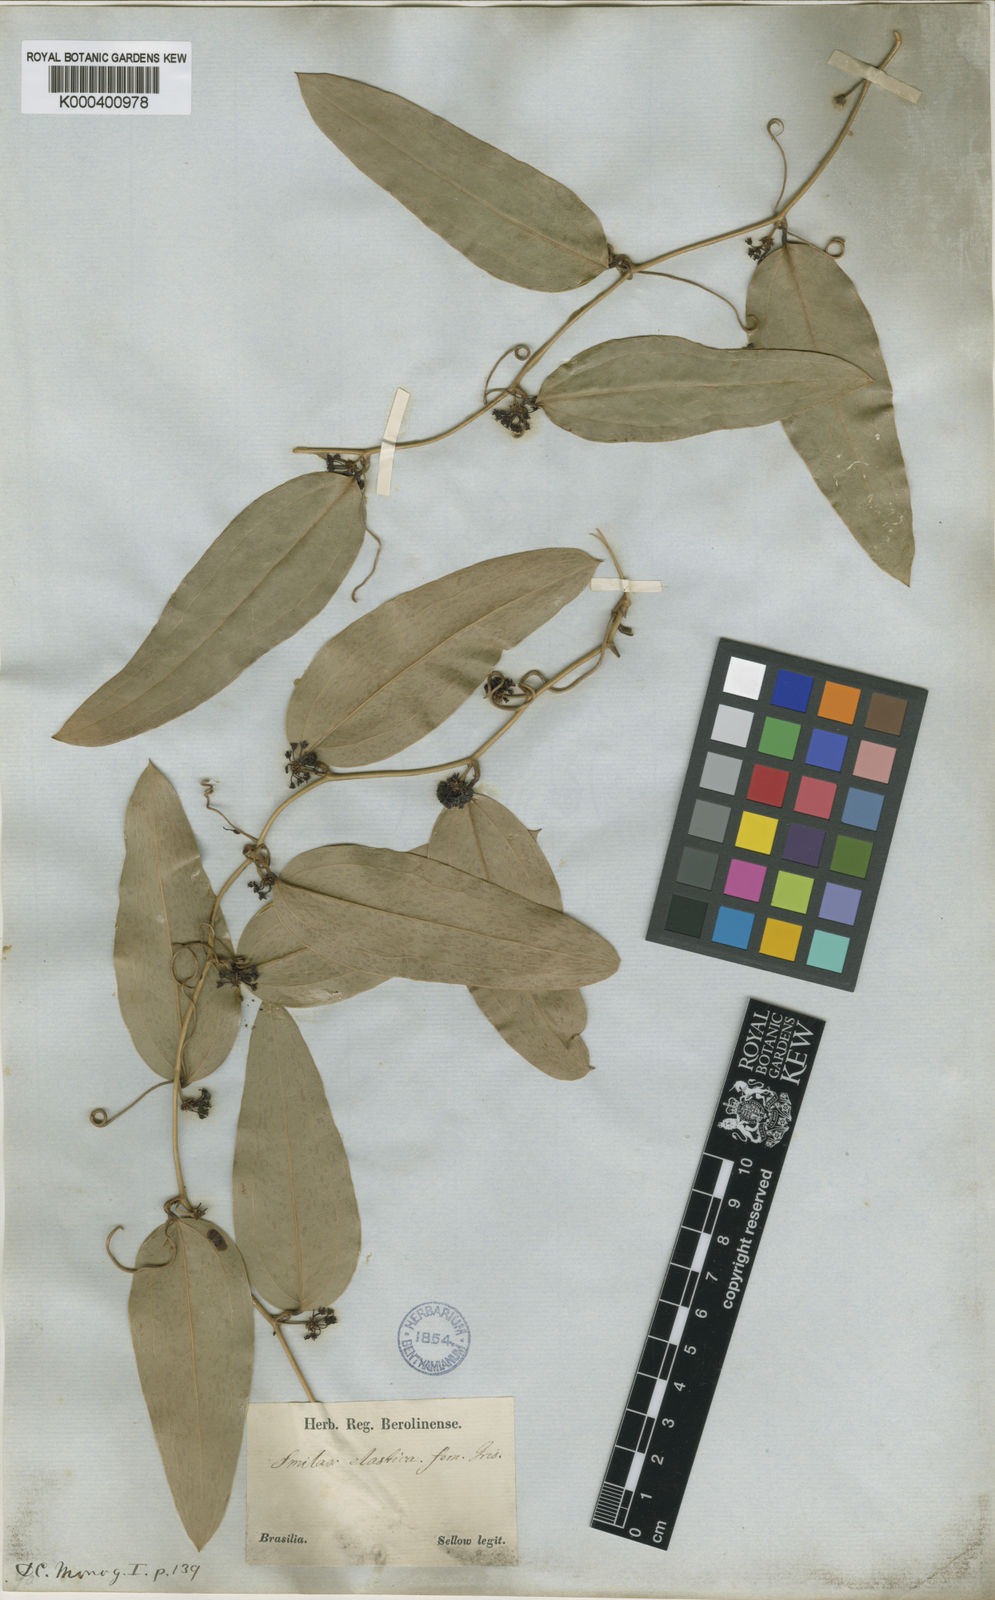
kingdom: Plantae
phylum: Tracheophyta
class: Liliopsida
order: Liliales
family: Smilacaceae
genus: Smilax
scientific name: Smilax elastica
